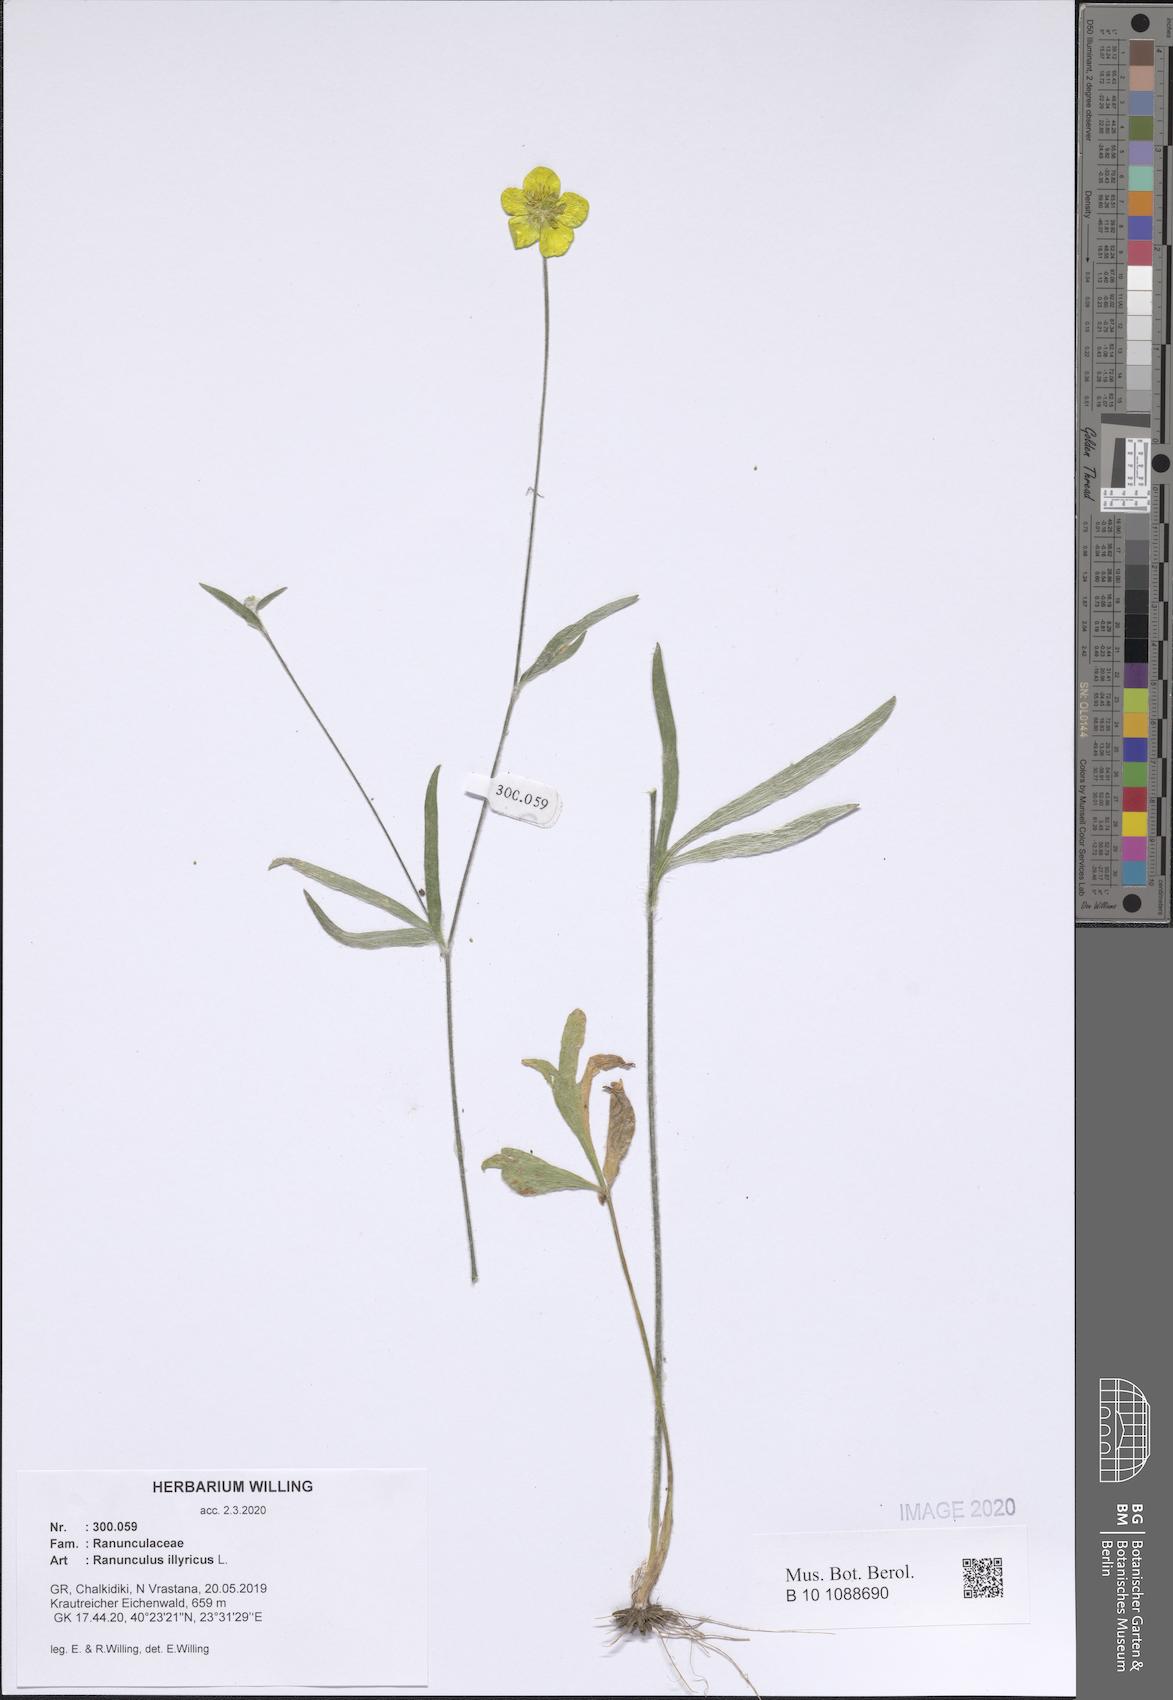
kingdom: Plantae
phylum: Tracheophyta
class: Magnoliopsida
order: Ranunculales
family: Ranunculaceae
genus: Ranunculus
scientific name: Ranunculus illyricus
